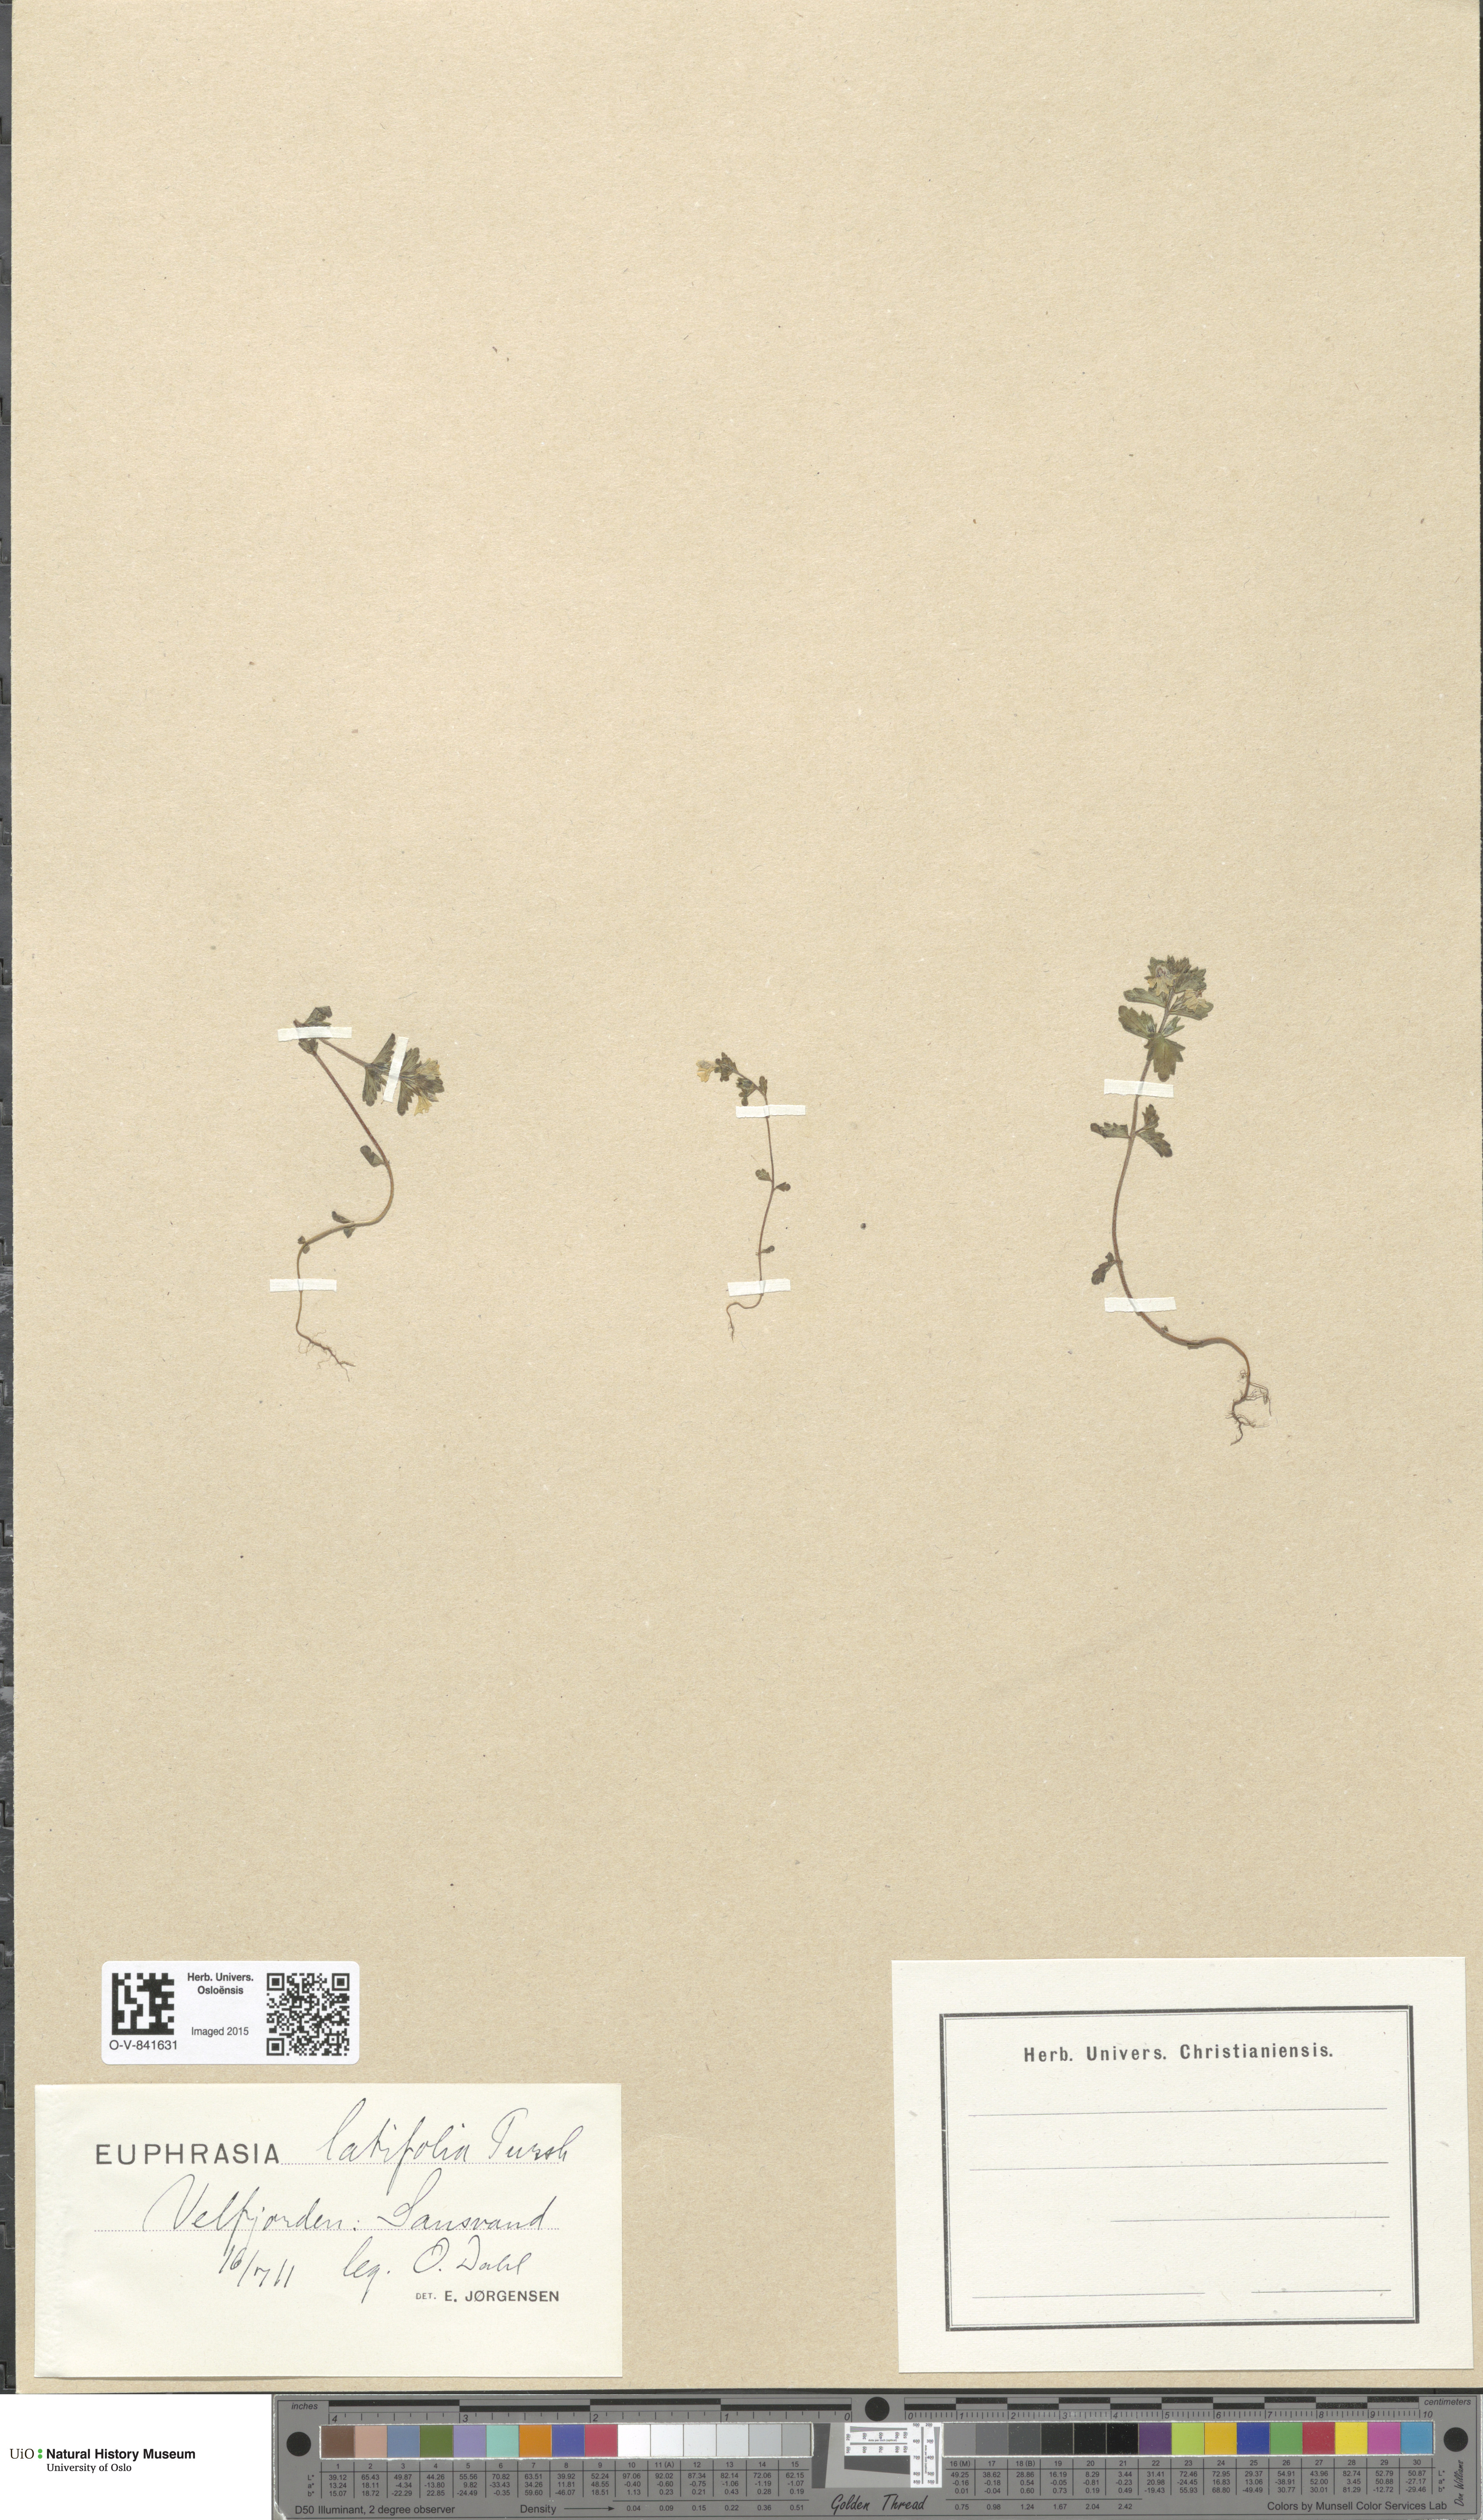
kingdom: Plantae
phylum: Tracheophyta
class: Magnoliopsida
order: Lamiales
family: Orobanchaceae
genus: Euphrasia
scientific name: Euphrasia wettsteinii
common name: Wettstein's eyebright
